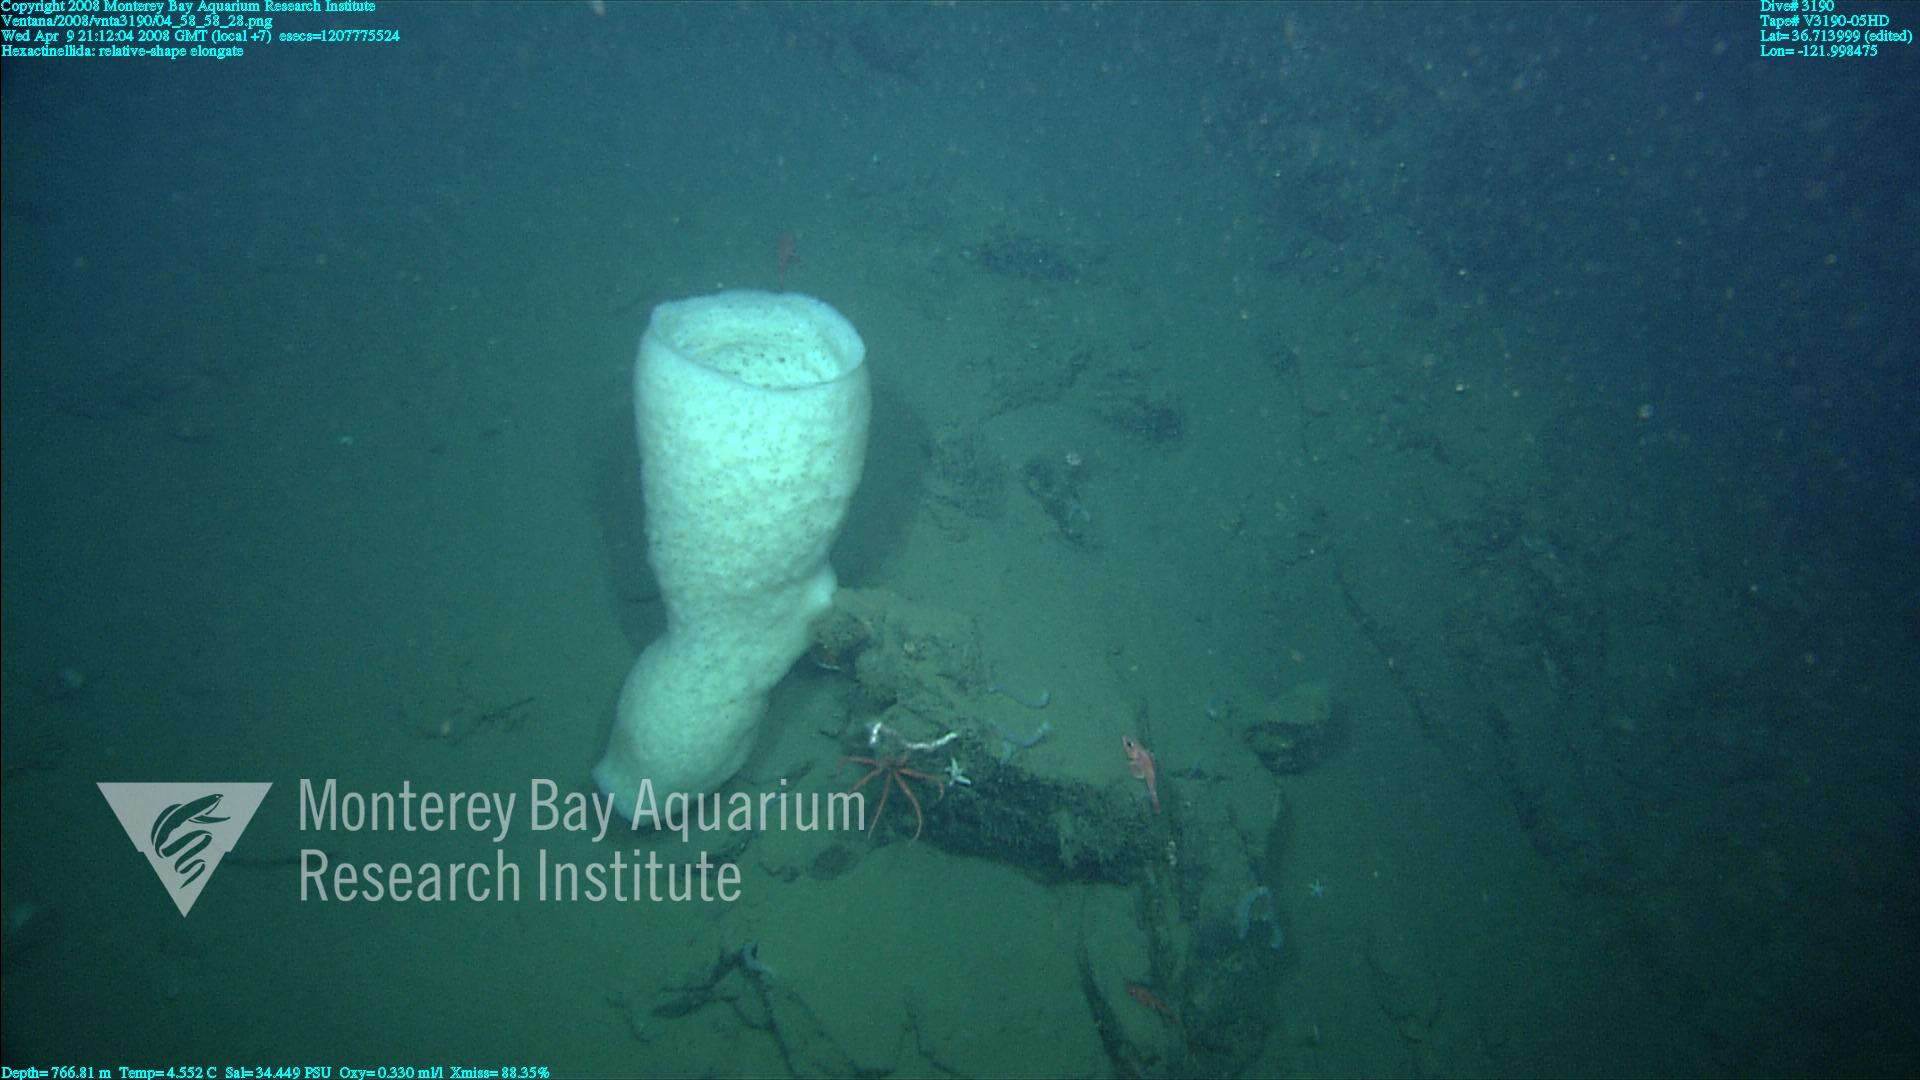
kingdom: Animalia
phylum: Porifera
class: Hexactinellida
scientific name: Hexactinellida
